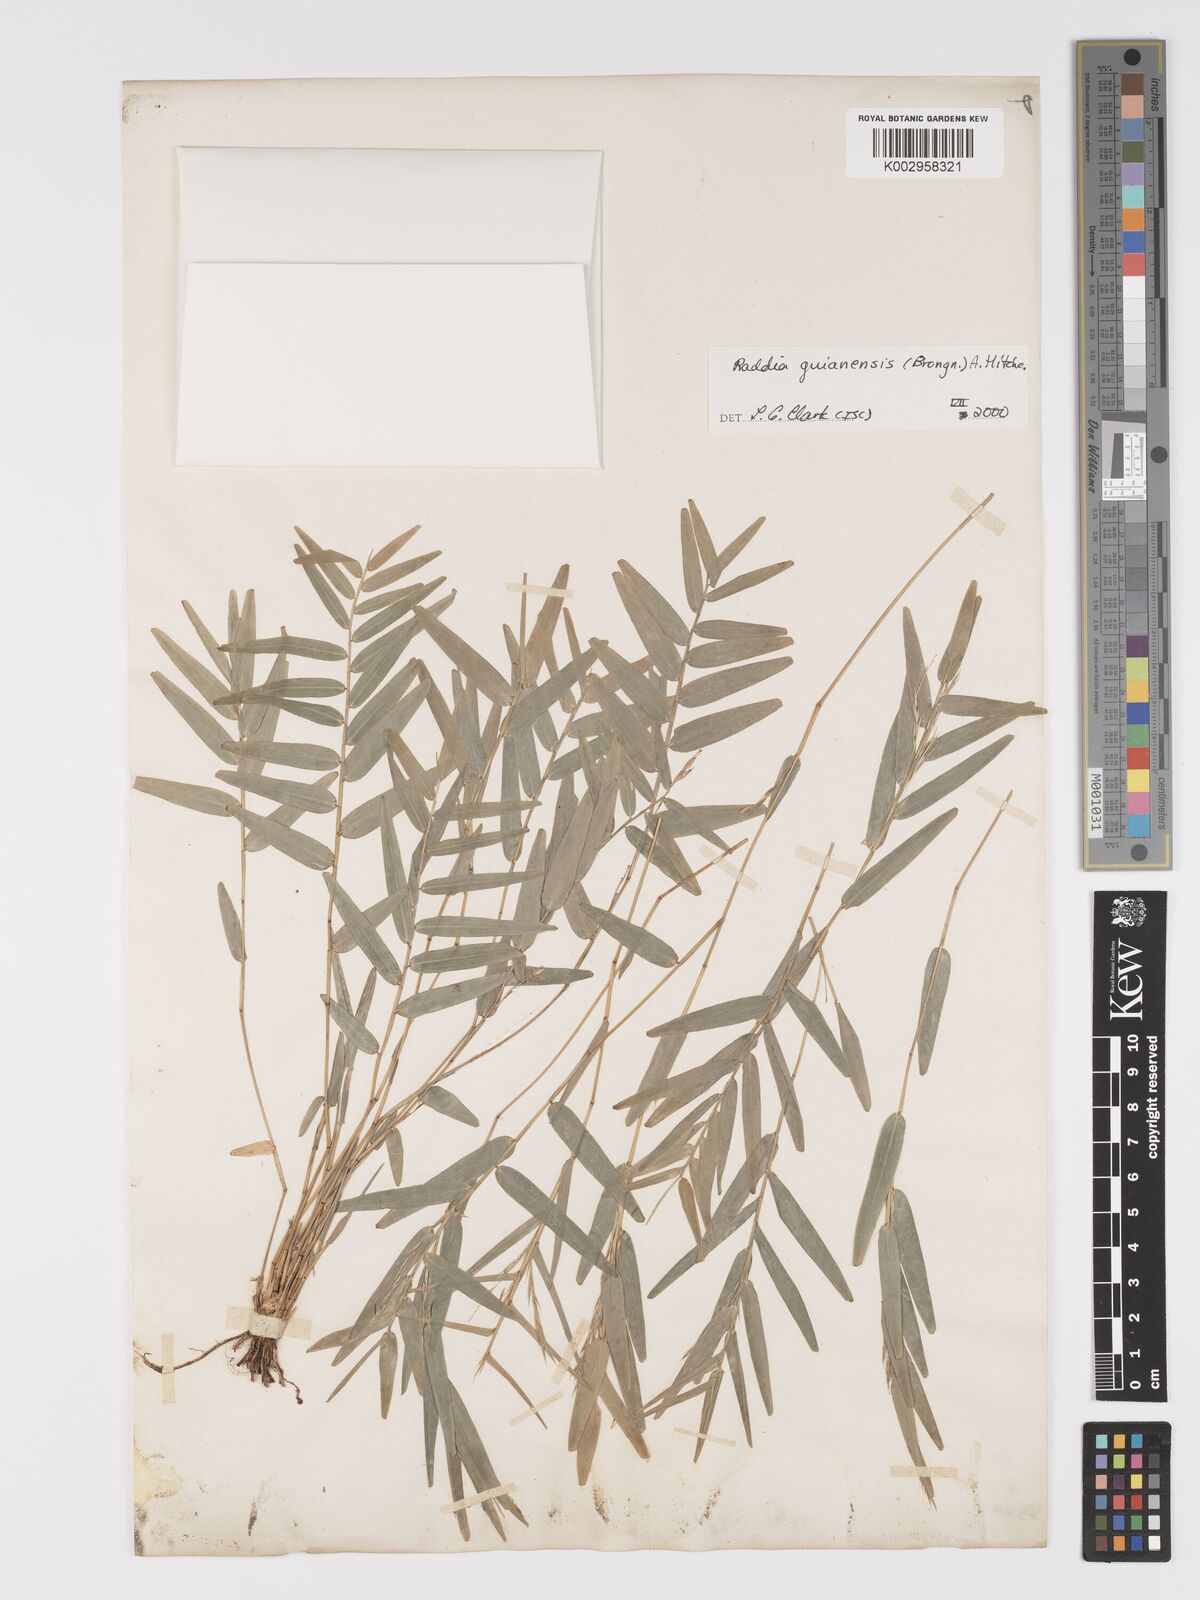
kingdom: Plantae
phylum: Tracheophyta
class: Liliopsida
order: Poales
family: Poaceae
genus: Raddia
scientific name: Raddia guianensis
